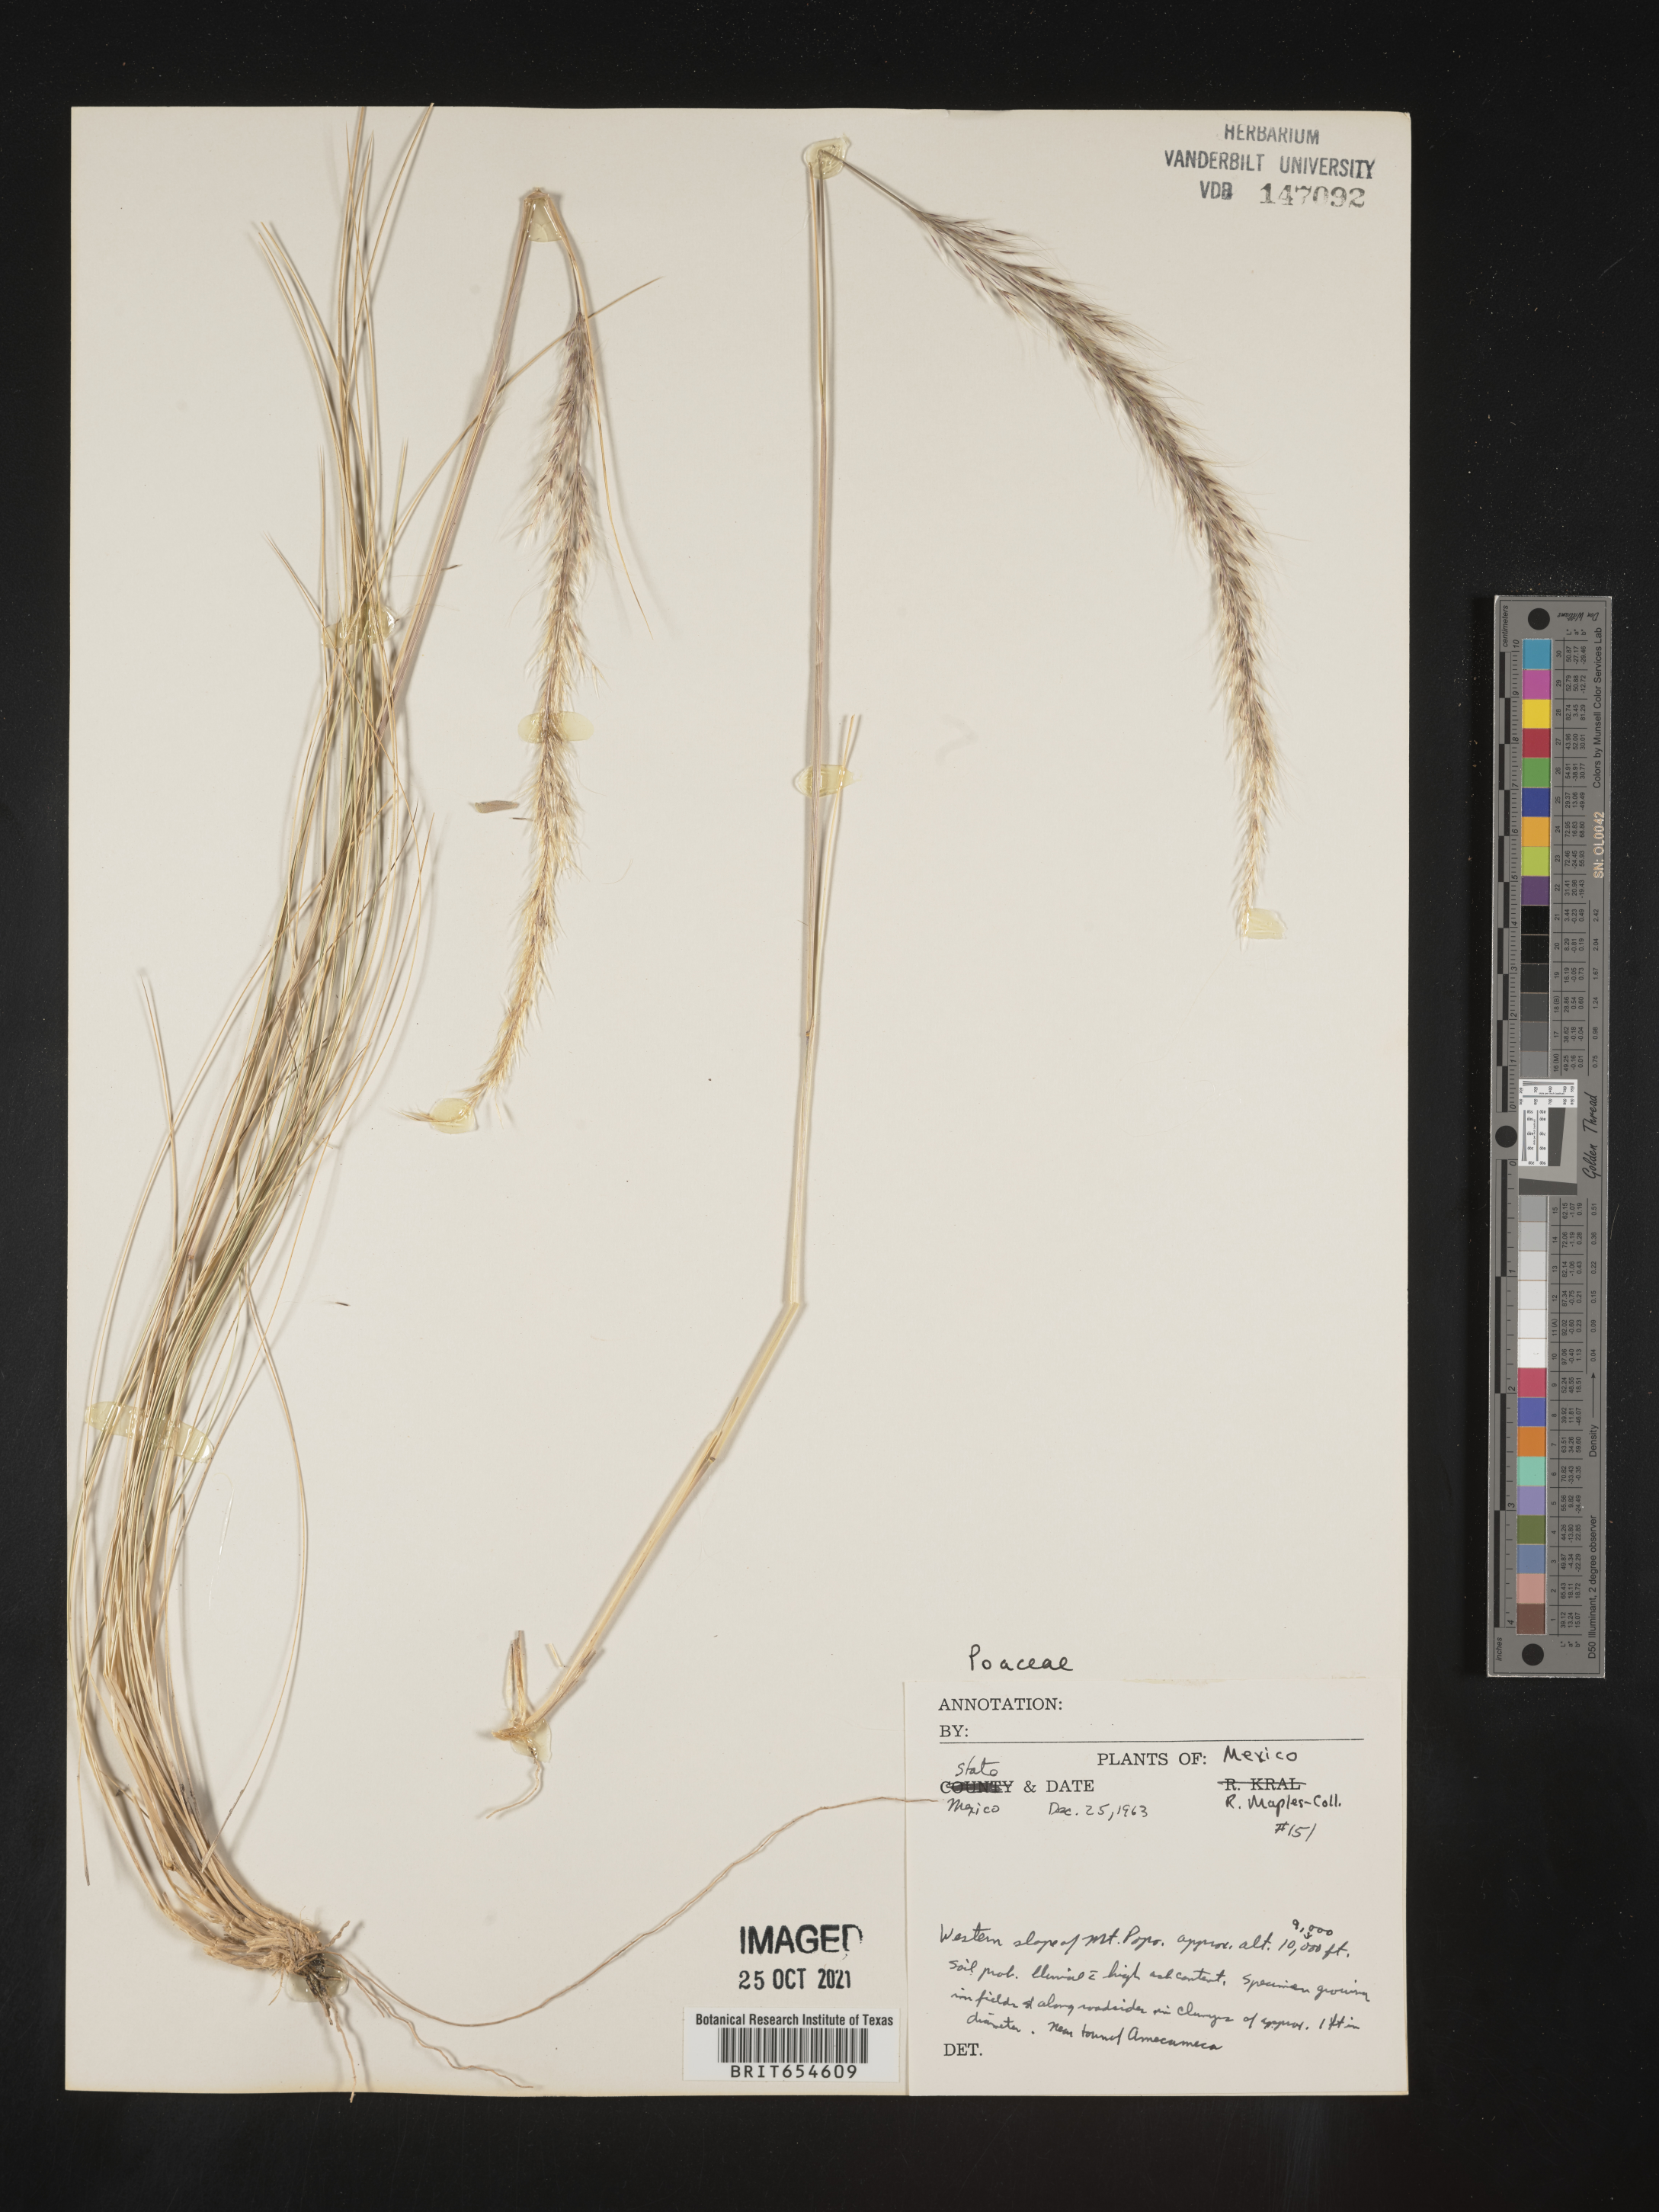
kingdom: Plantae
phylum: Tracheophyta
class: Liliopsida
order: Poales
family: Poaceae
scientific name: Poaceae
